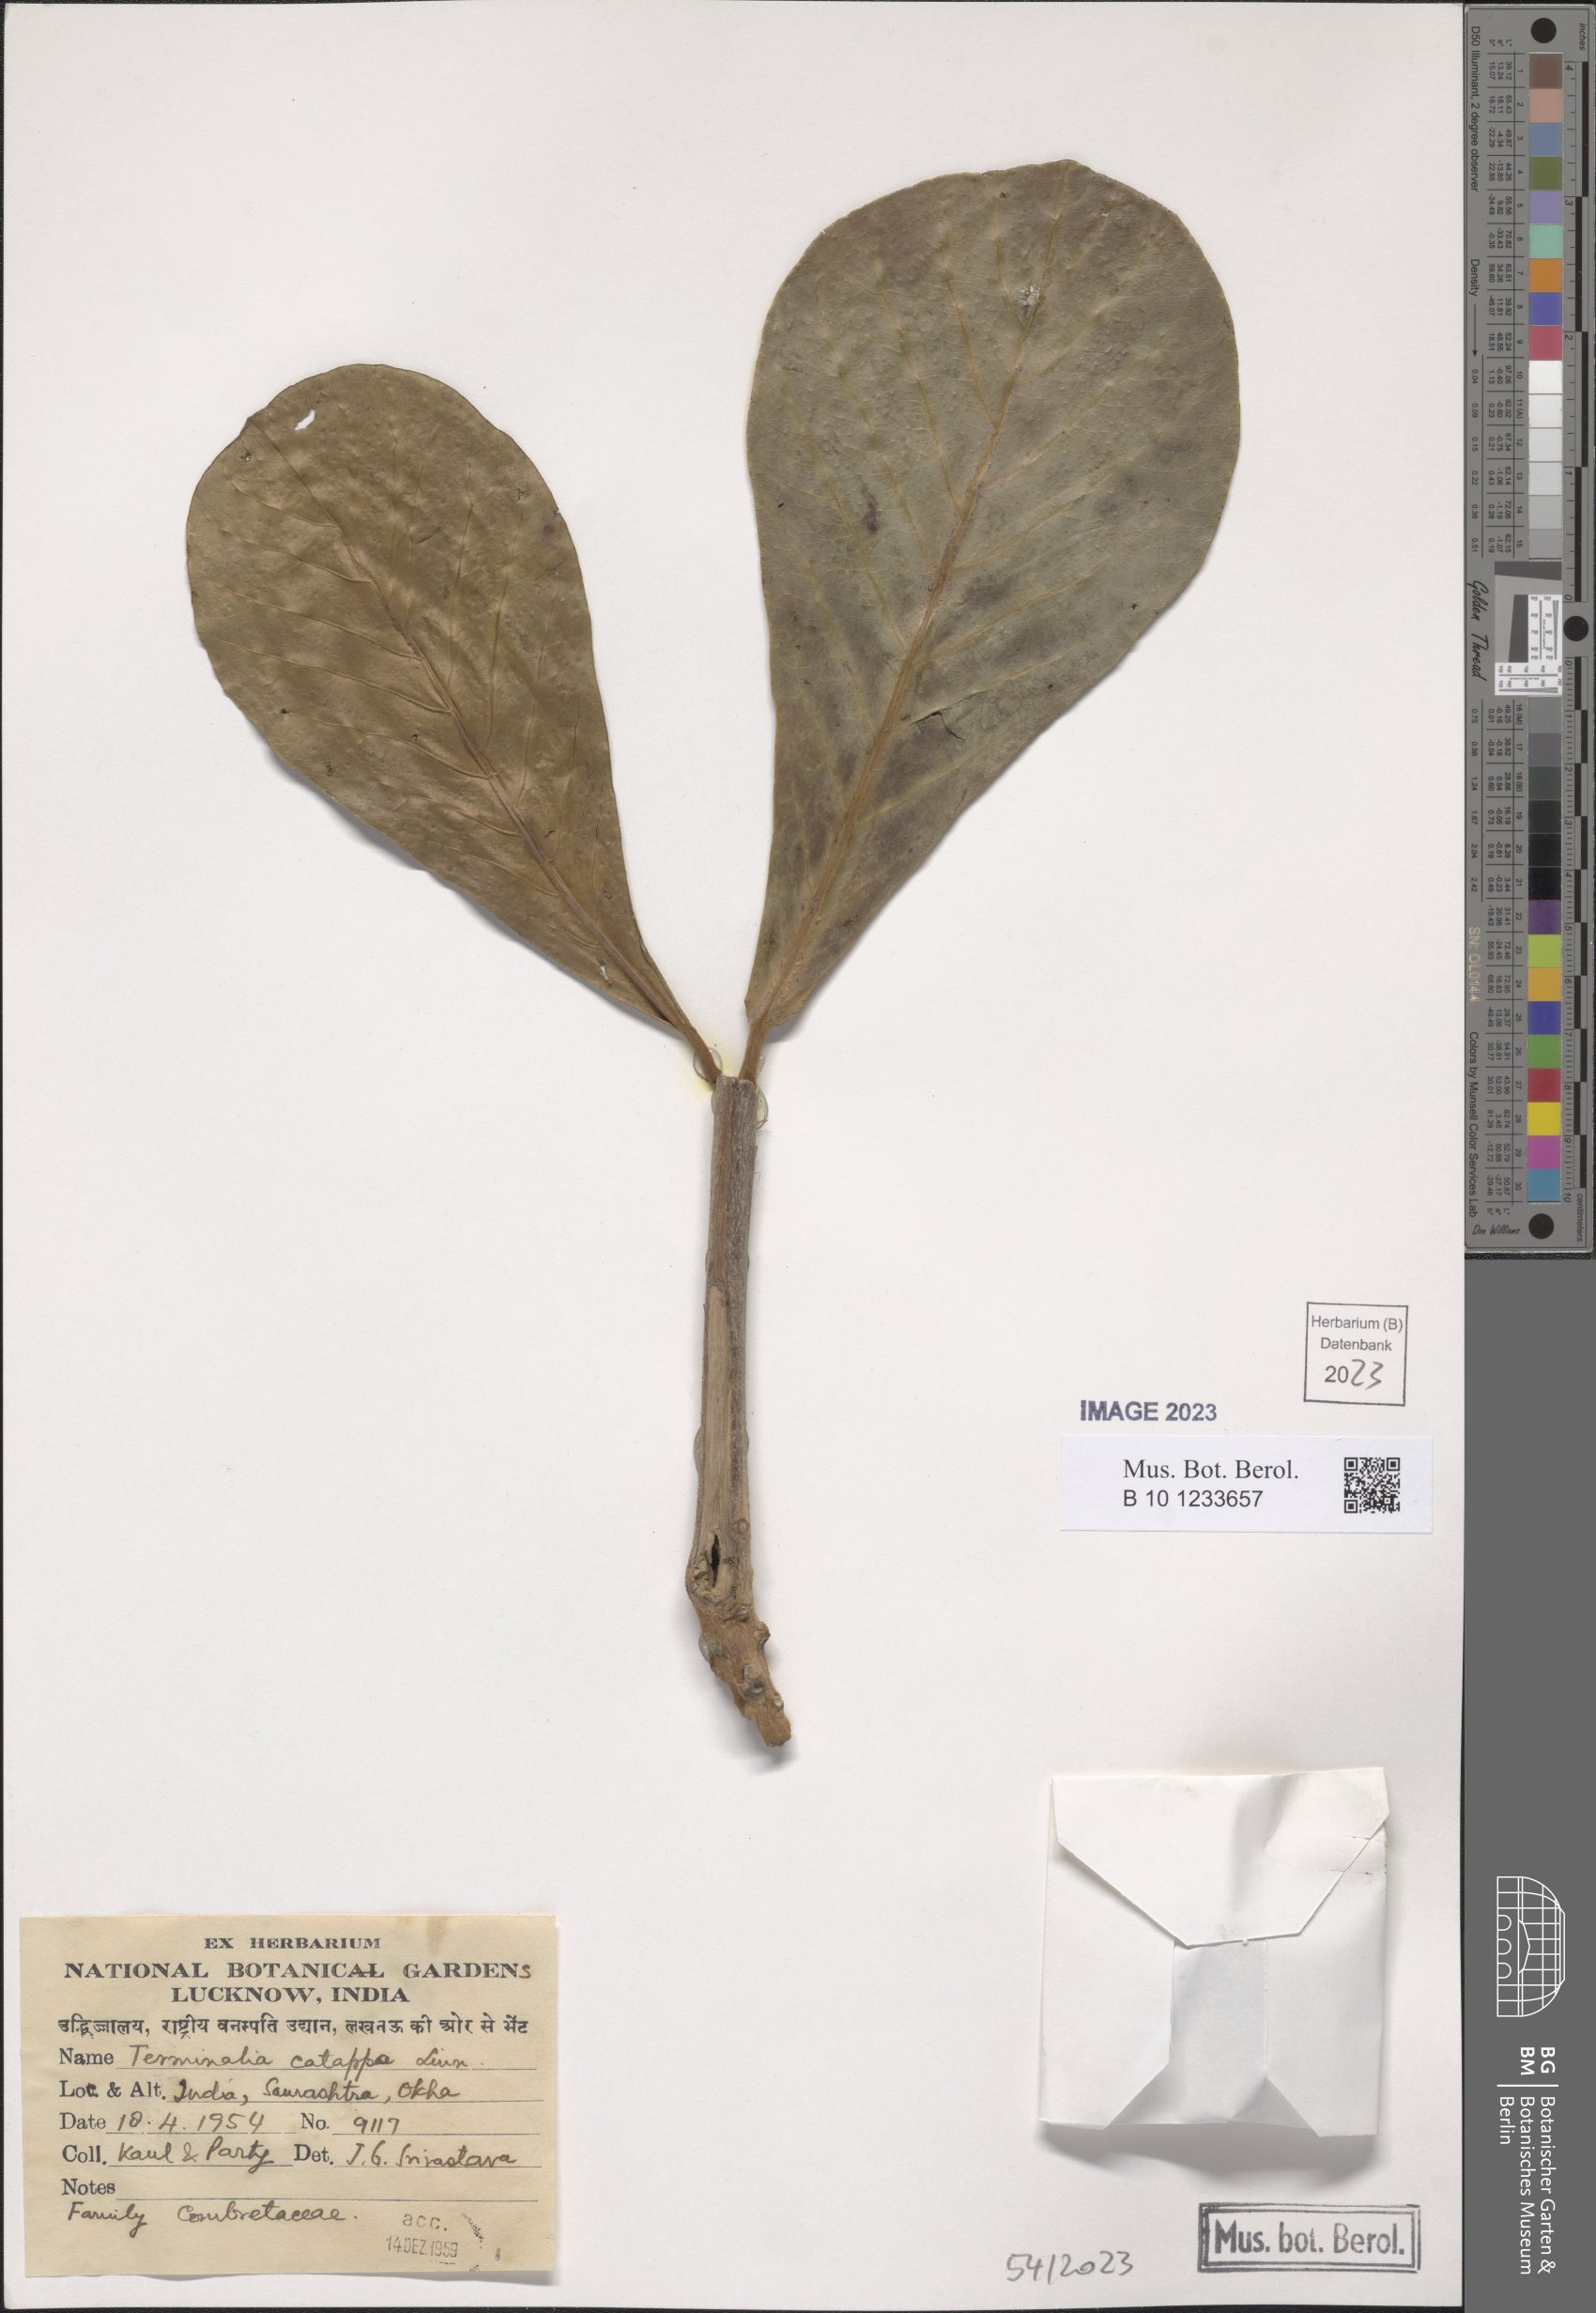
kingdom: Plantae
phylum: Tracheophyta
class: Magnoliopsida
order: Myrtales
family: Combretaceae
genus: Terminalia
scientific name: Terminalia catappa
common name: Tropical almond
